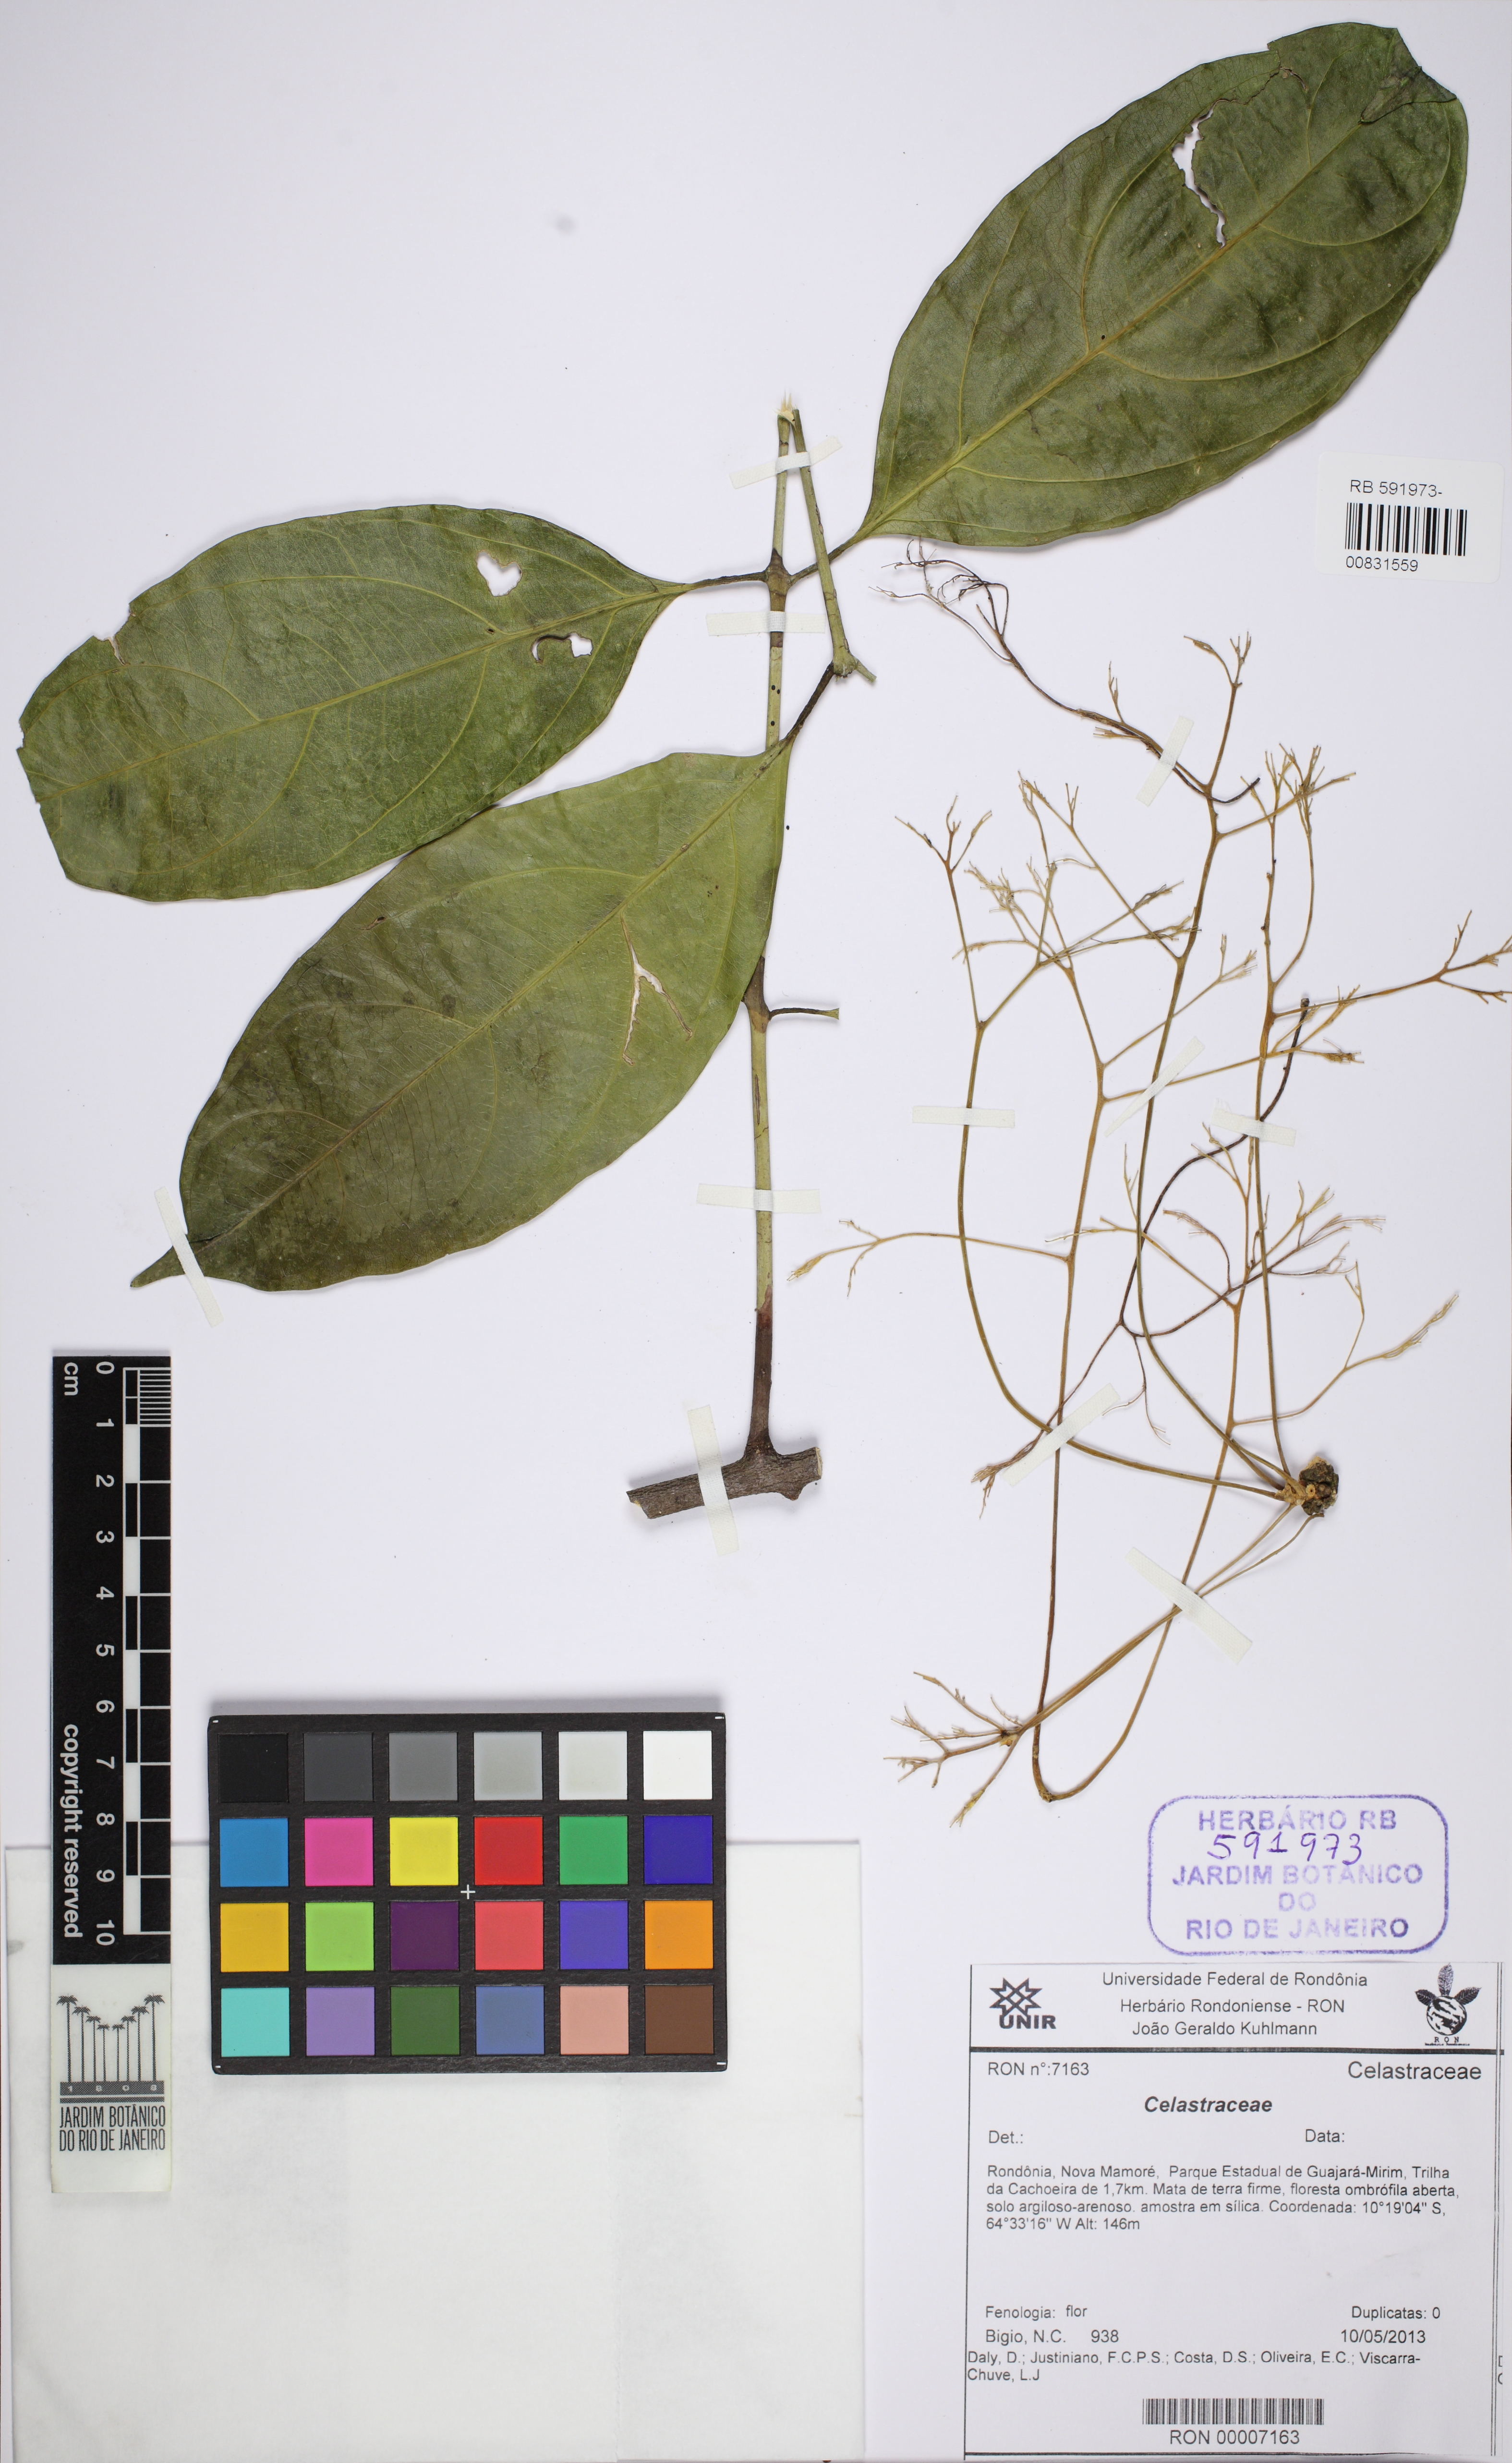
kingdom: Plantae
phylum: Tracheophyta
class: Magnoliopsida
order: Celastrales
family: Celastraceae
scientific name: Celastraceae
